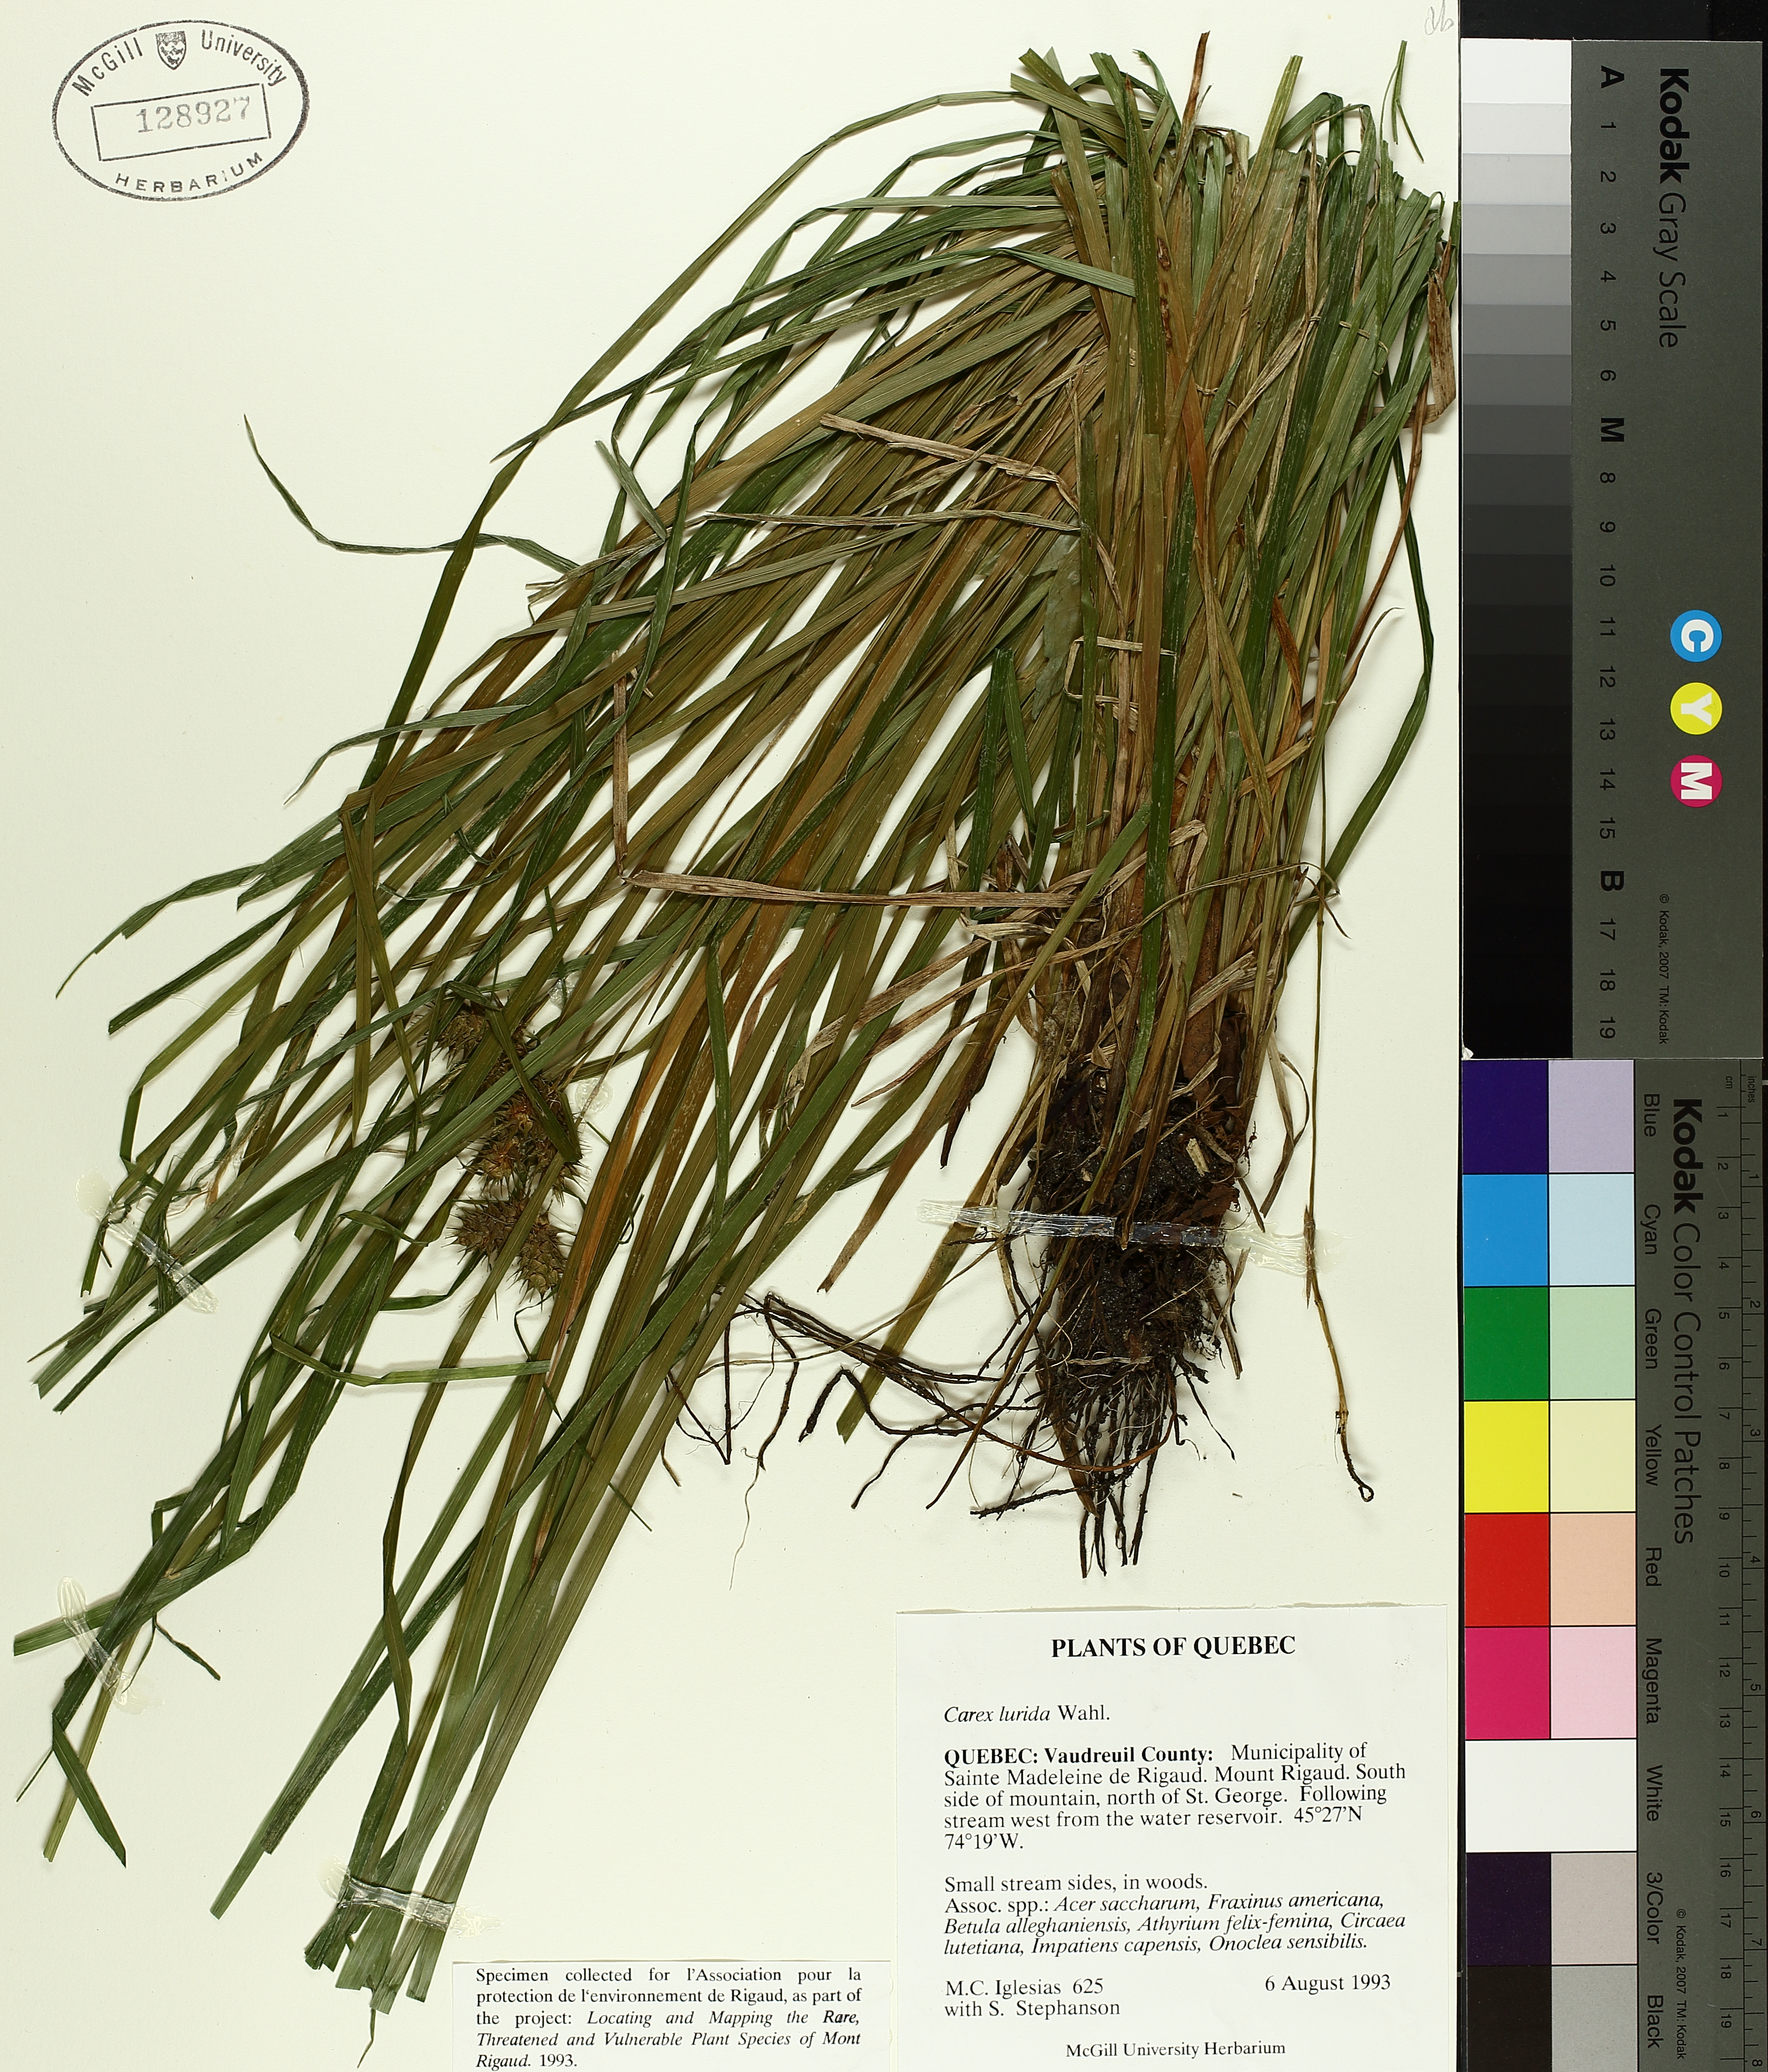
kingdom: Plantae
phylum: Tracheophyta
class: Liliopsida
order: Poales
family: Cyperaceae
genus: Carex
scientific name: Carex lurida
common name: Sallow sedge
